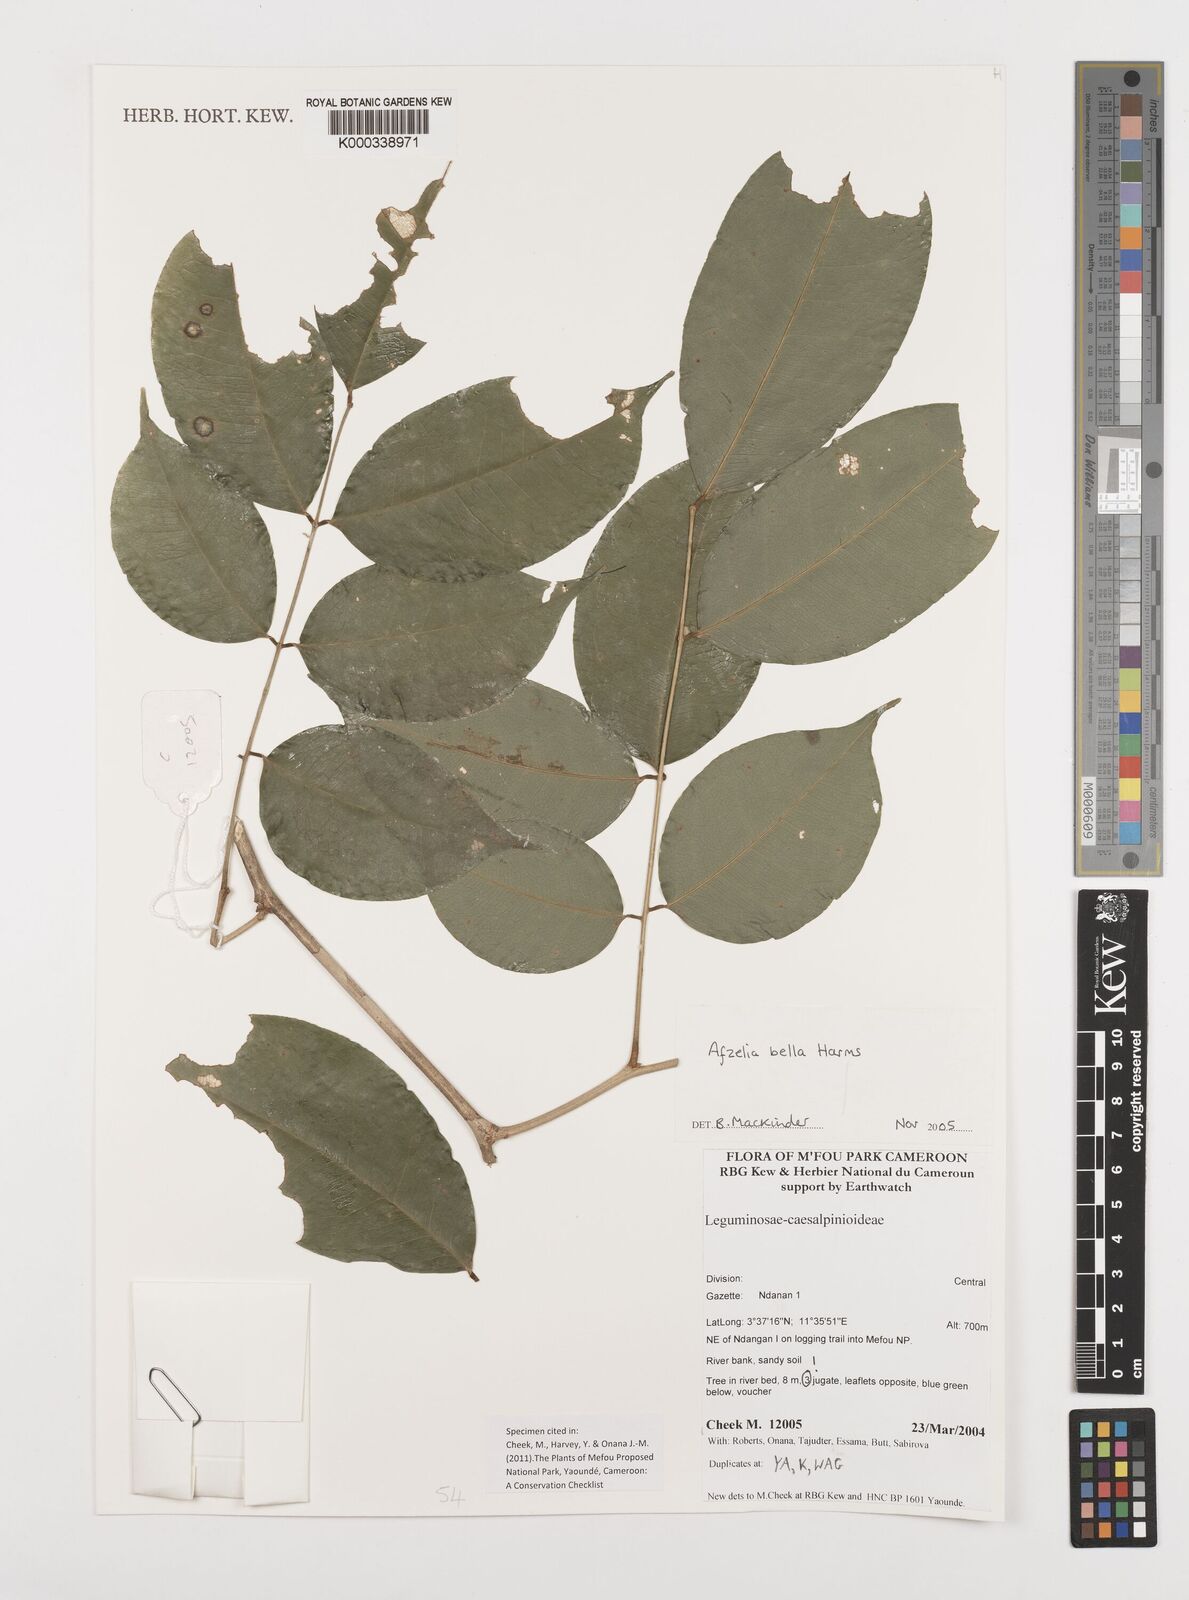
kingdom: Plantae
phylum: Tracheophyta
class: Magnoliopsida
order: Fabales
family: Fabaceae
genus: Afzelia
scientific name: Afzelia bella
